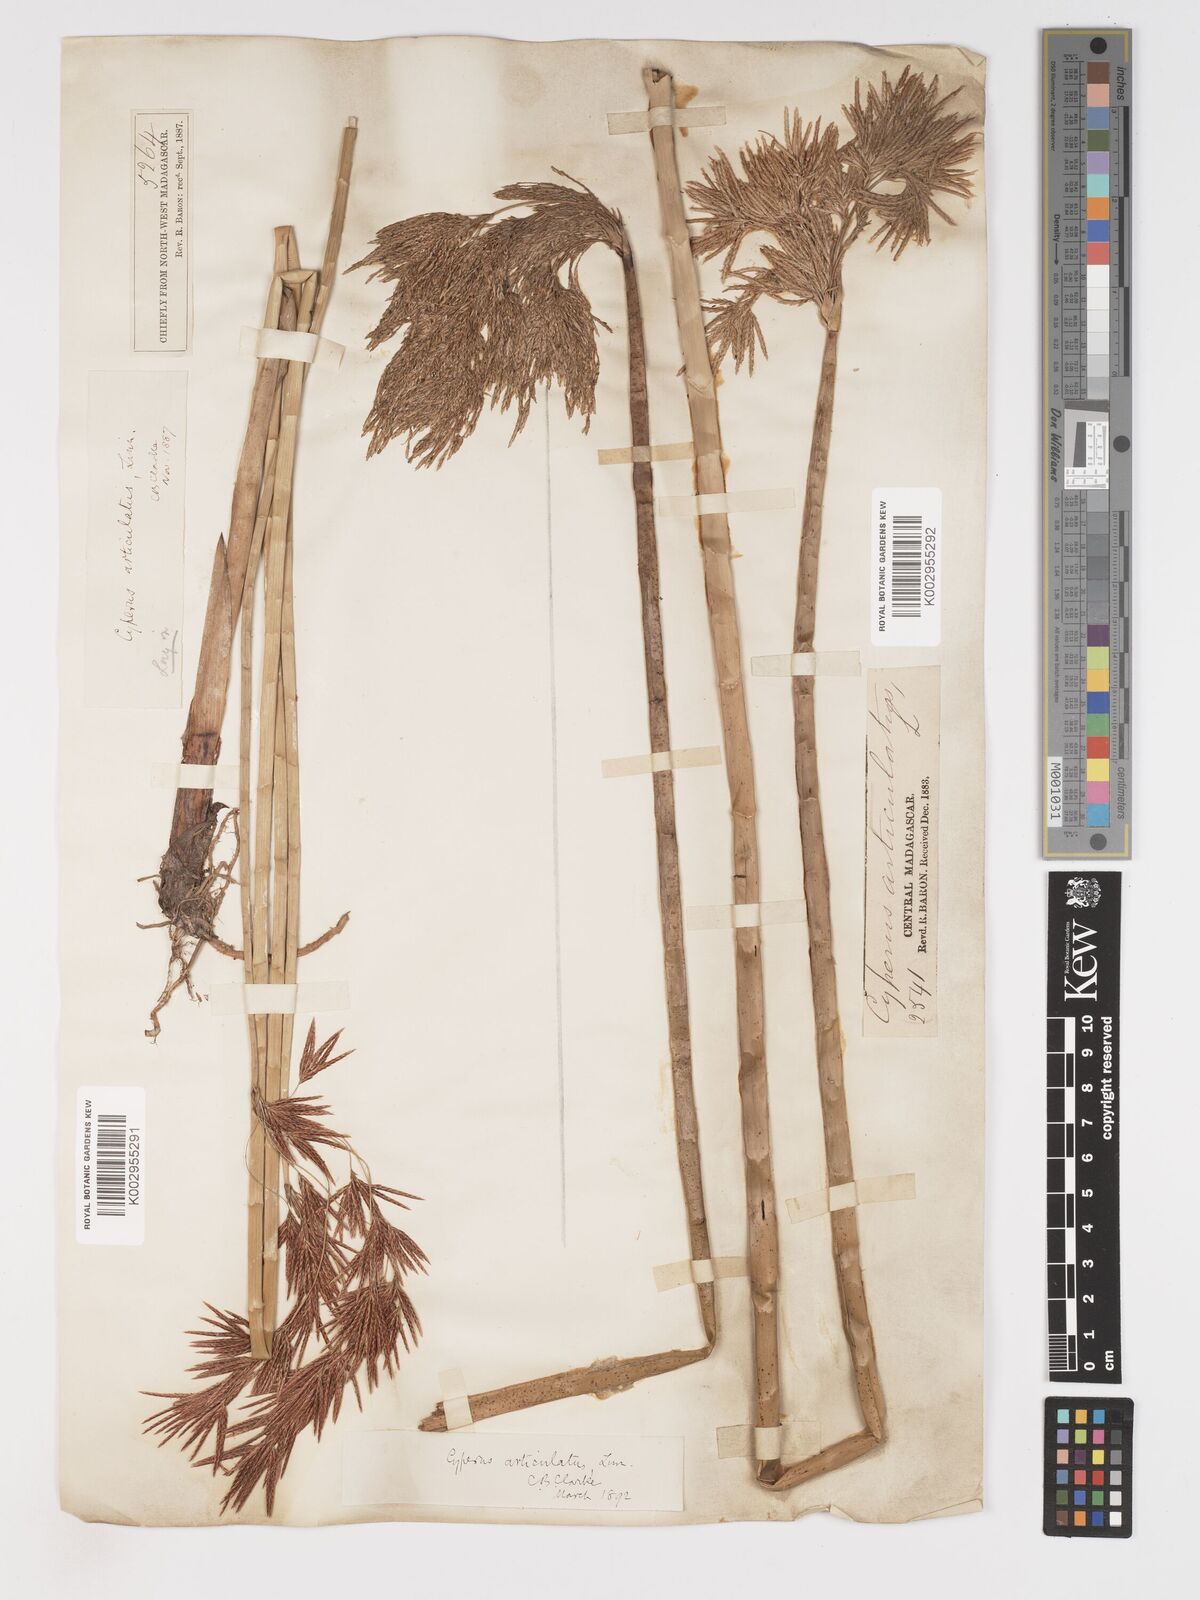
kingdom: Plantae
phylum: Tracheophyta
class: Liliopsida
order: Poales
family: Cyperaceae
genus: Cyperus
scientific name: Cyperus articulatus
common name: Jointed flatsedge
